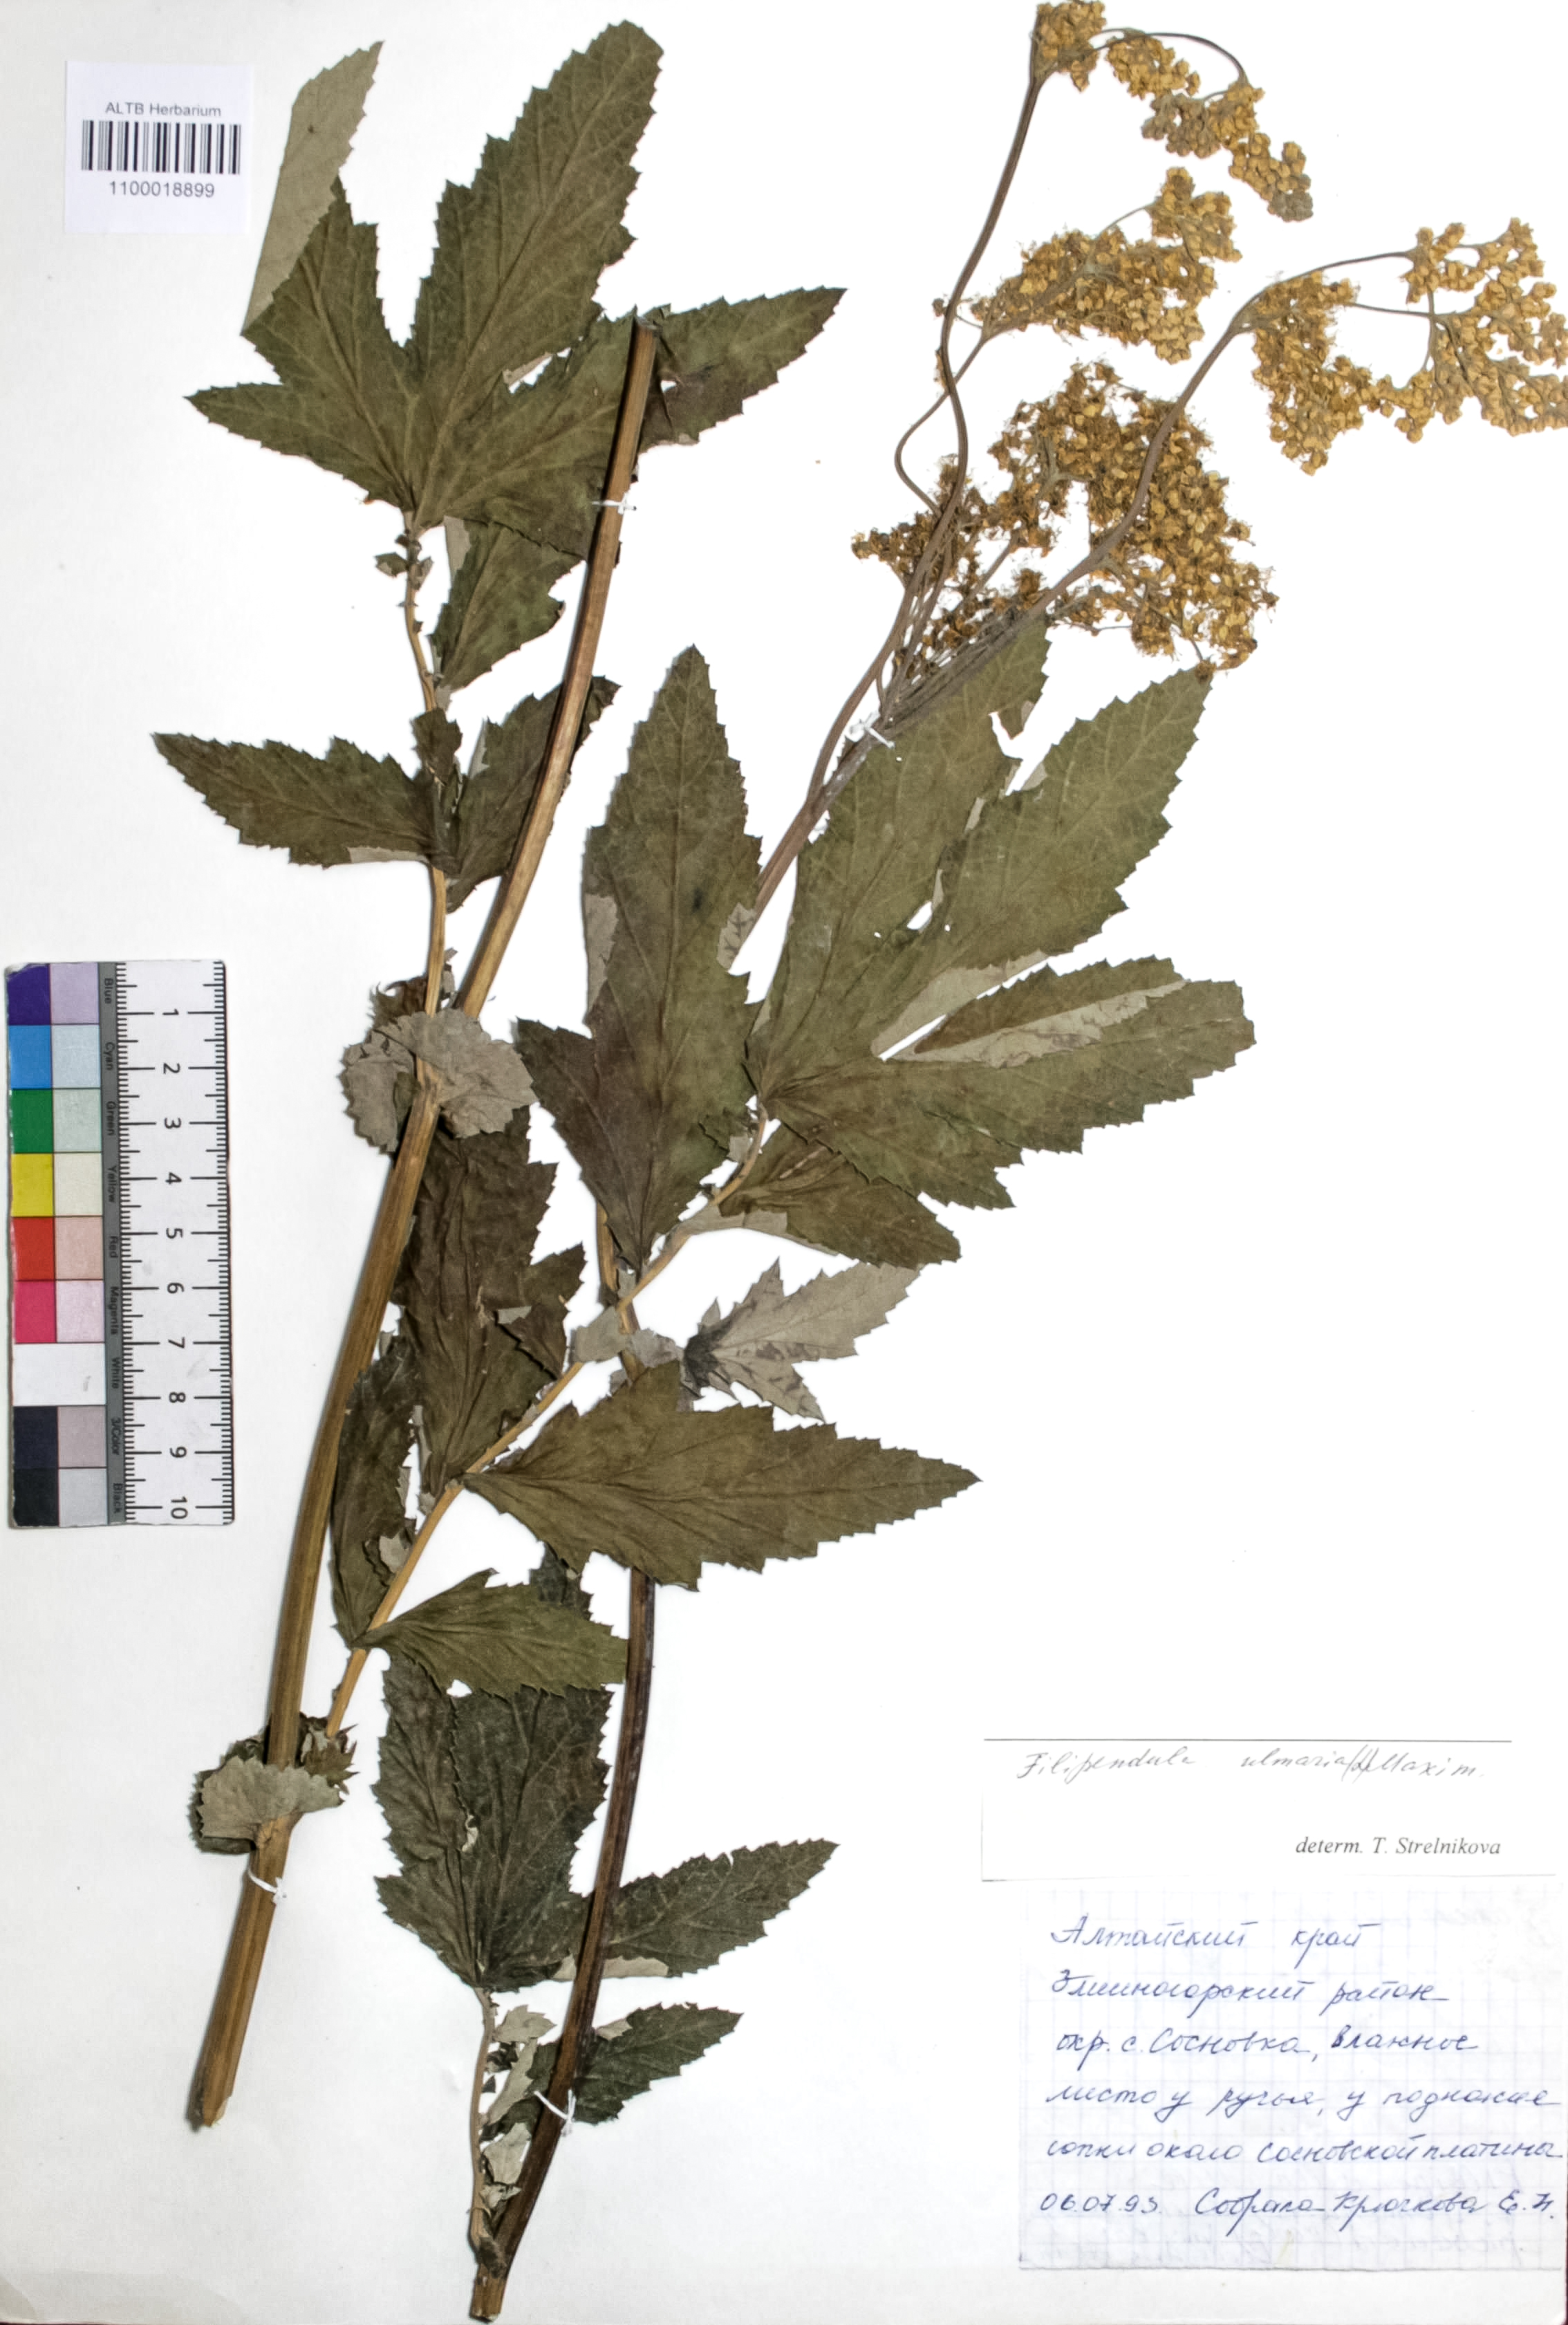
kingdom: Plantae
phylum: Tracheophyta
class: Magnoliopsida
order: Rosales
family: Rosaceae
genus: Filipendula
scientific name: Filipendula ulmaria
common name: Meadowsweet
